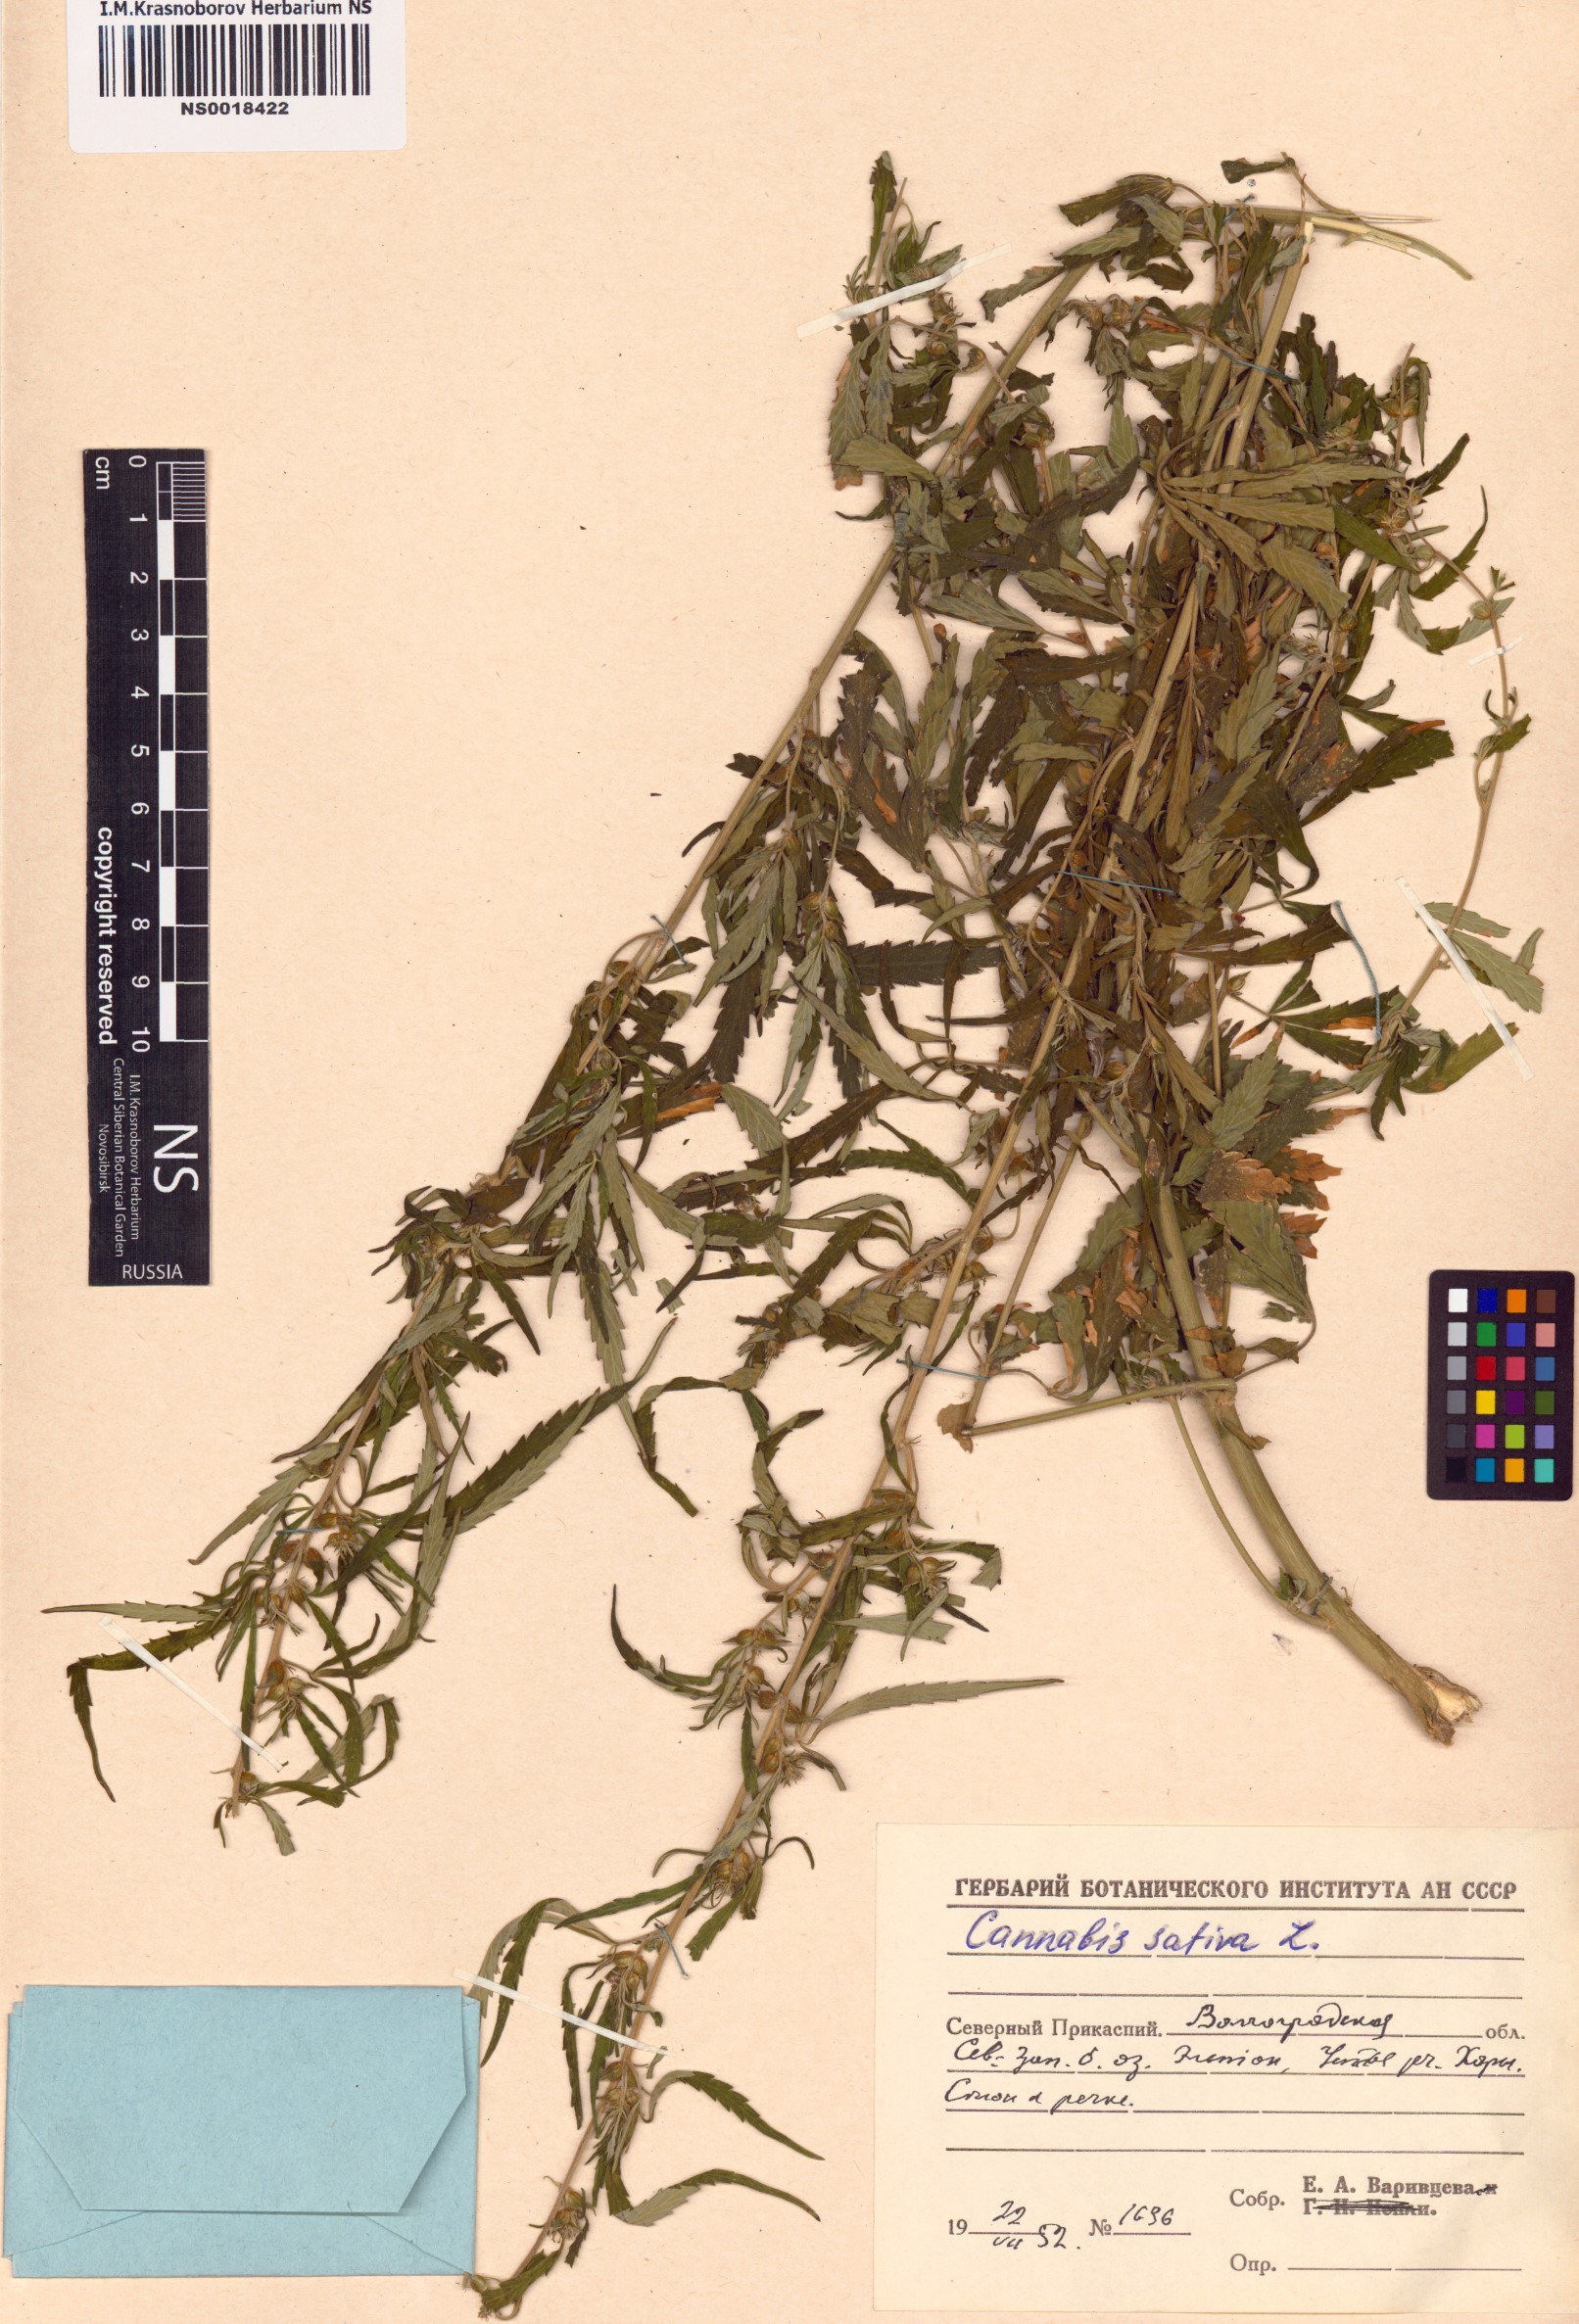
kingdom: Plantae
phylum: Tracheophyta
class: Magnoliopsida
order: Rosales
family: Cannabaceae
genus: Cannabis
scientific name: Cannabis sativa
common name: Hemp
